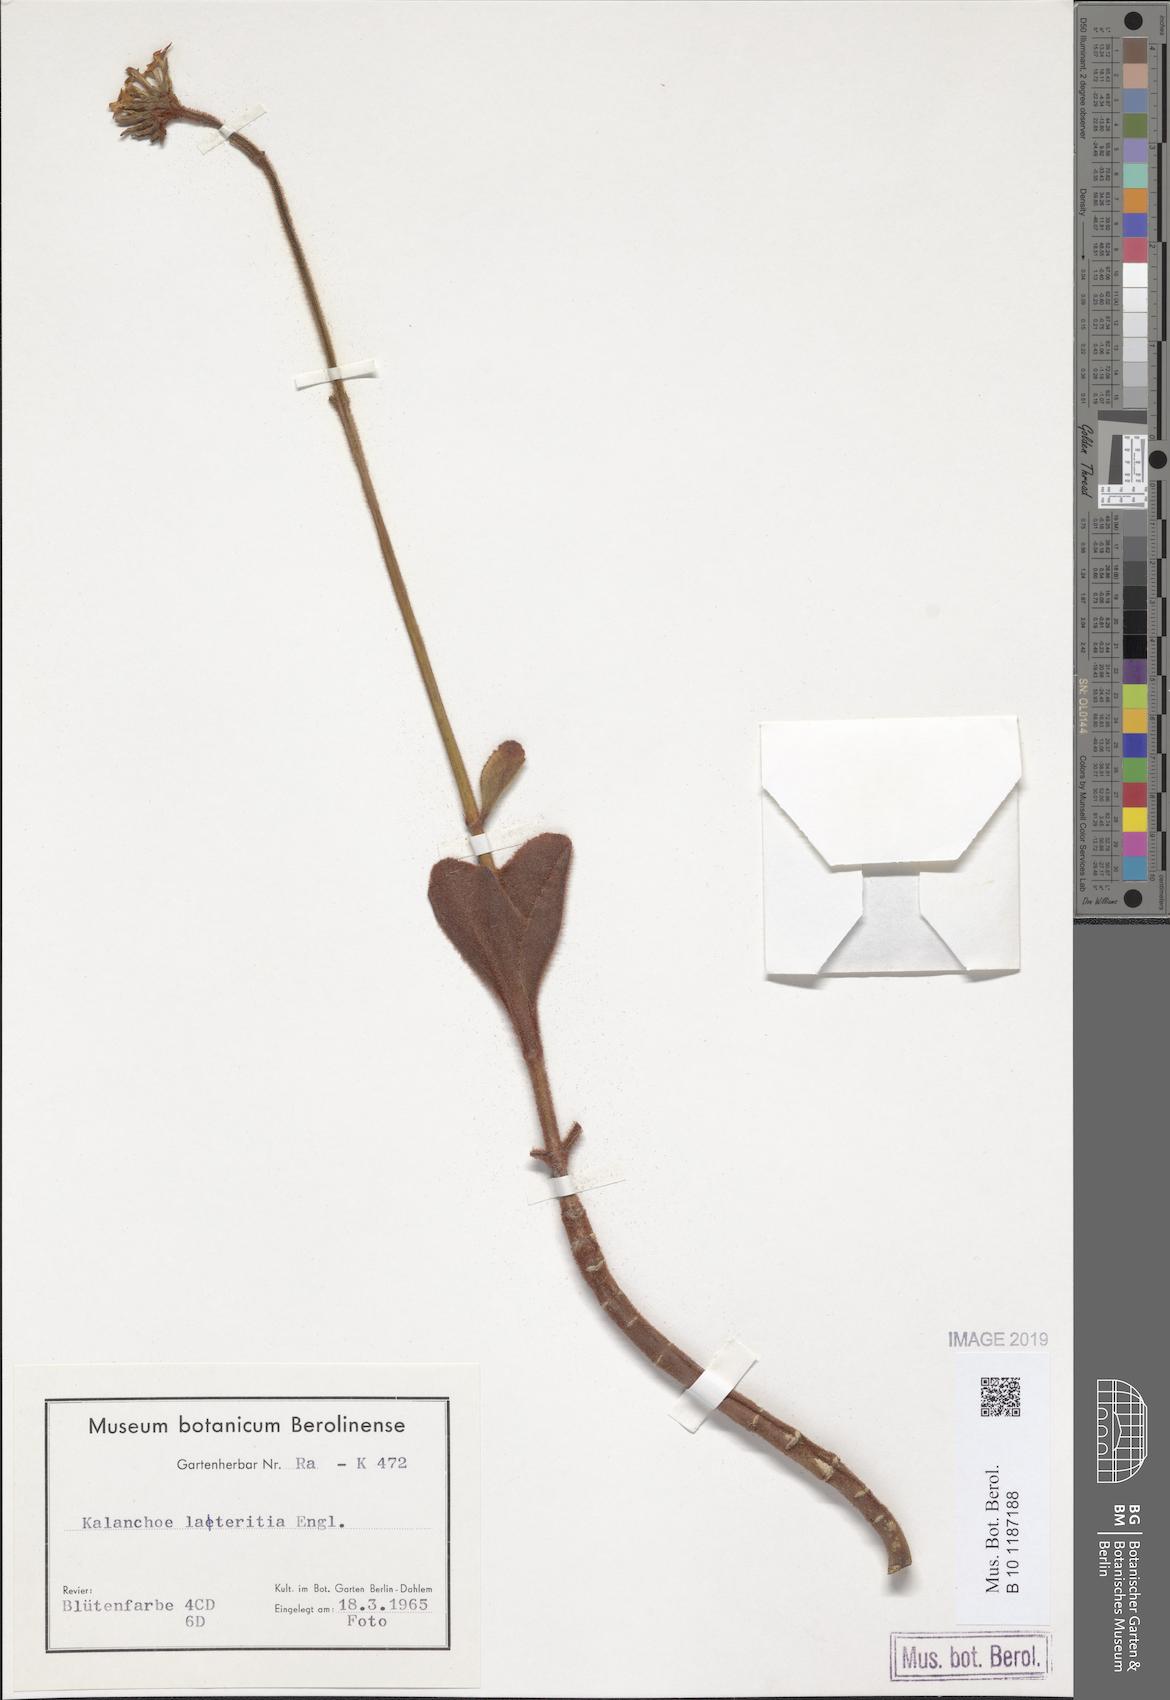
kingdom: Plantae
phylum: Tracheophyta
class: Magnoliopsida
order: Saxifragales
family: Crassulaceae
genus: Kalanchoe
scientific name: Kalanchoe lateritia
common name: Kalanchoe
